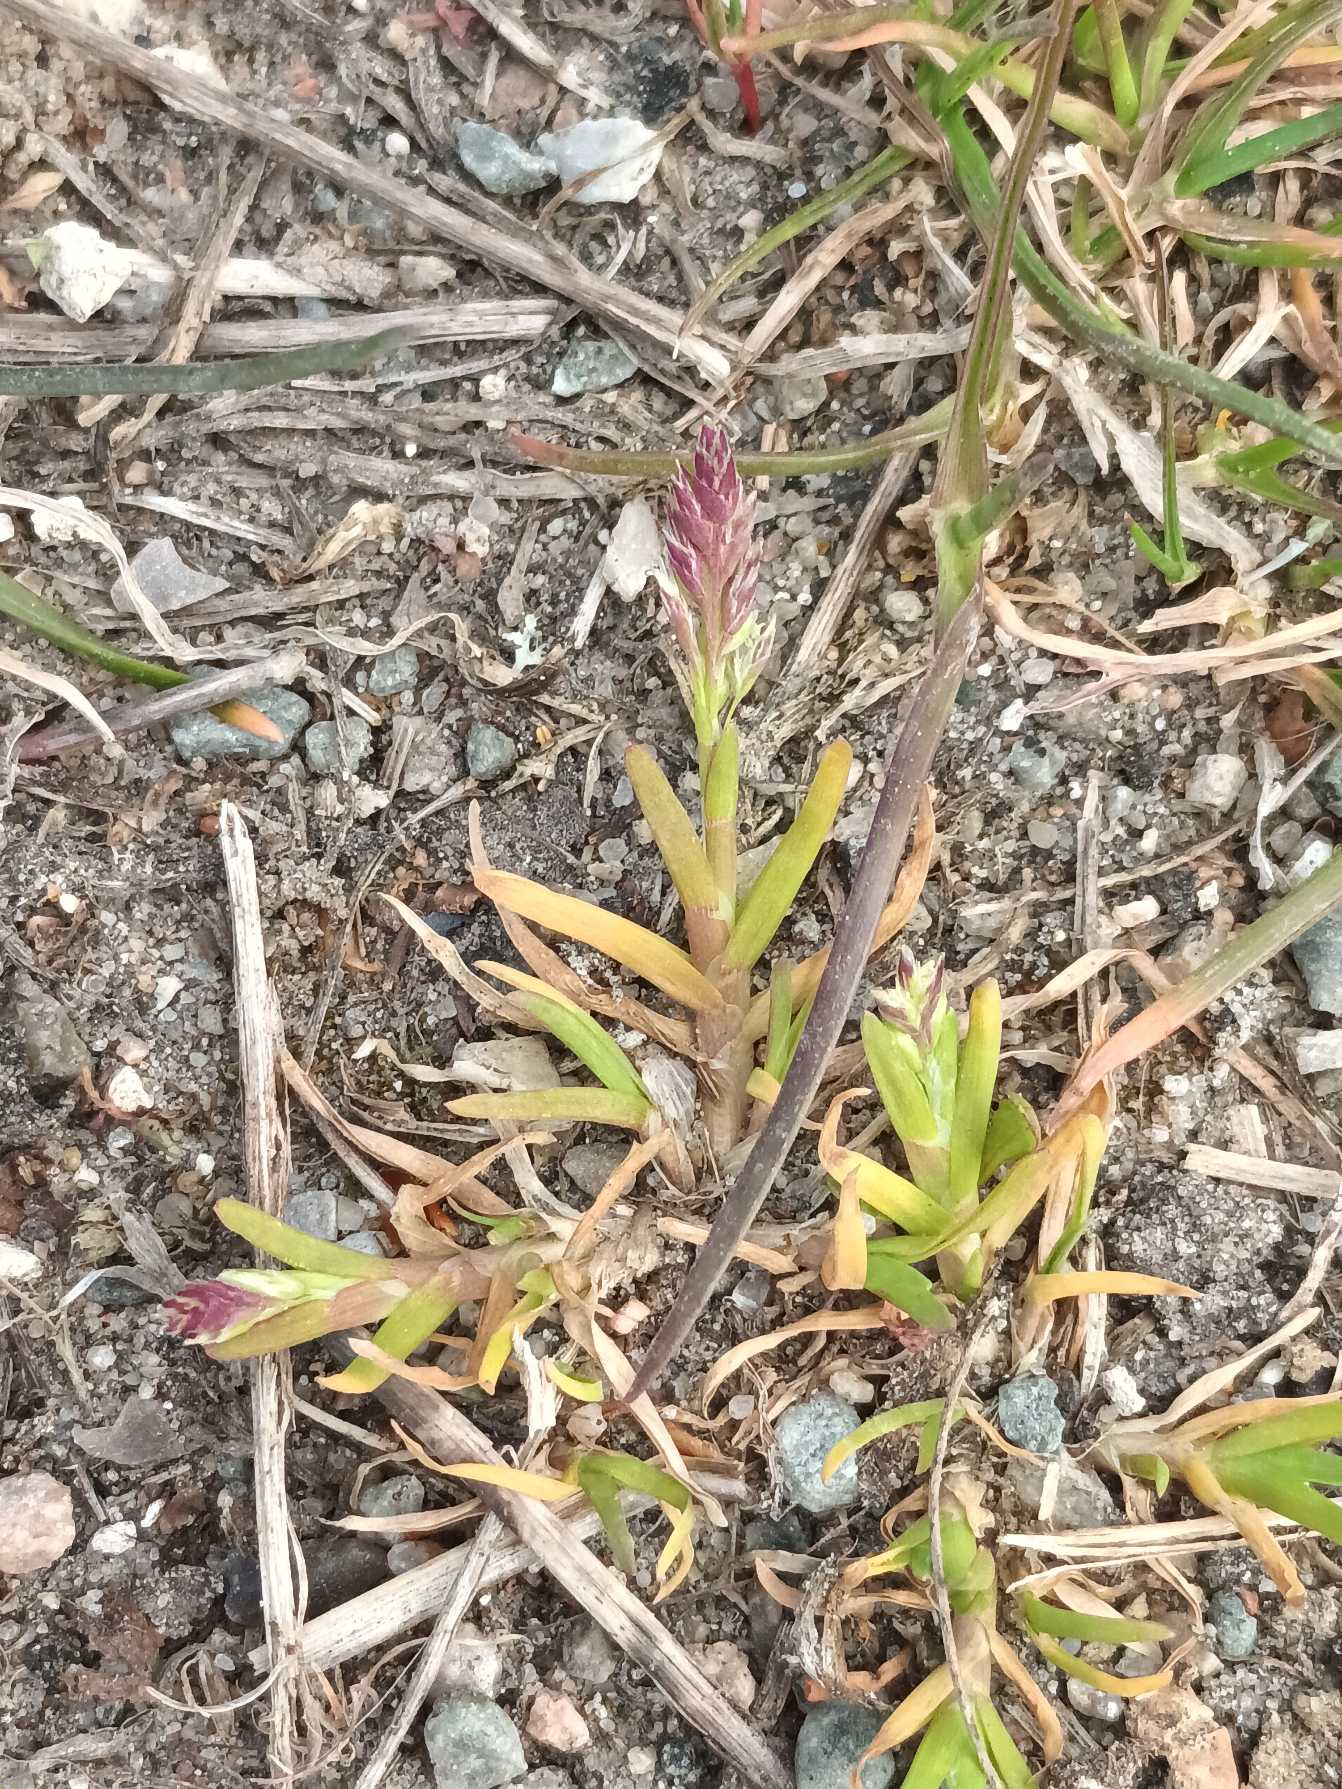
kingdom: Plantae
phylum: Tracheophyta
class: Liliopsida
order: Poales
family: Poaceae
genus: Poa
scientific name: Poa annua
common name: Enårig rapgræs
